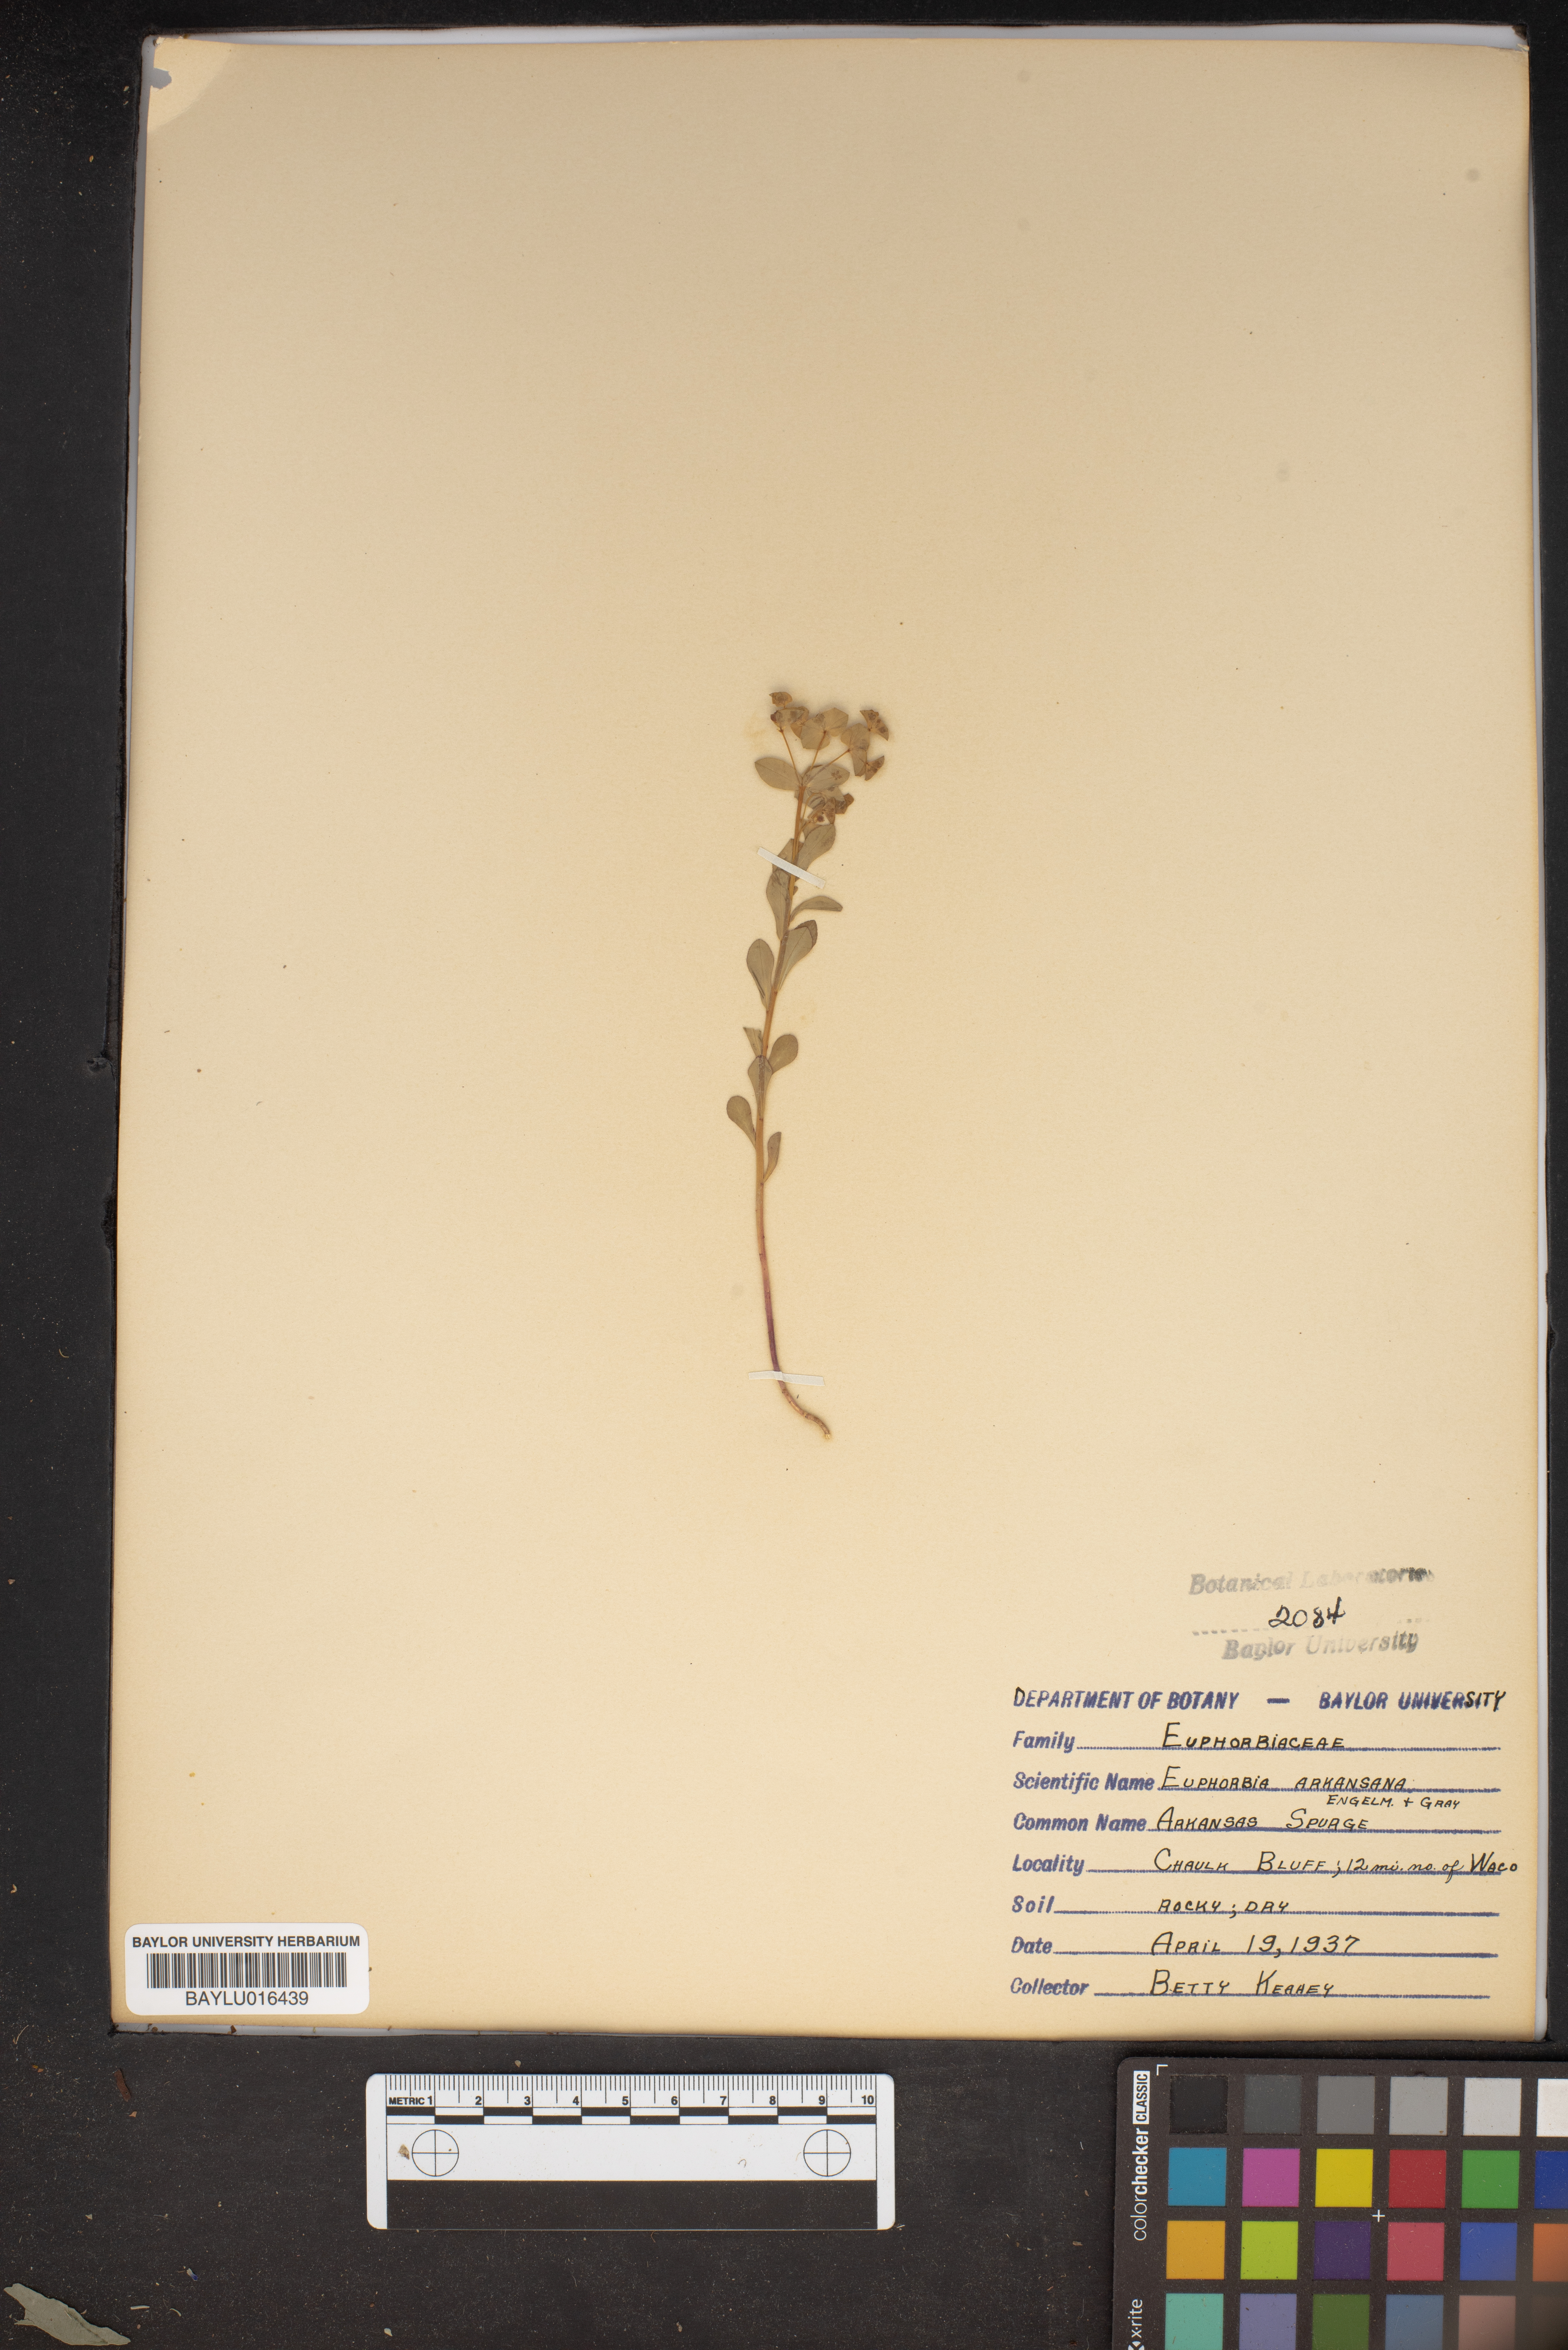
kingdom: Plantae
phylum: Tracheophyta
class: Magnoliopsida
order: Malpighiales
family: Euphorbiaceae
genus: Euphorbia
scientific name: Euphorbia spathulata
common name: Blunt spurge
